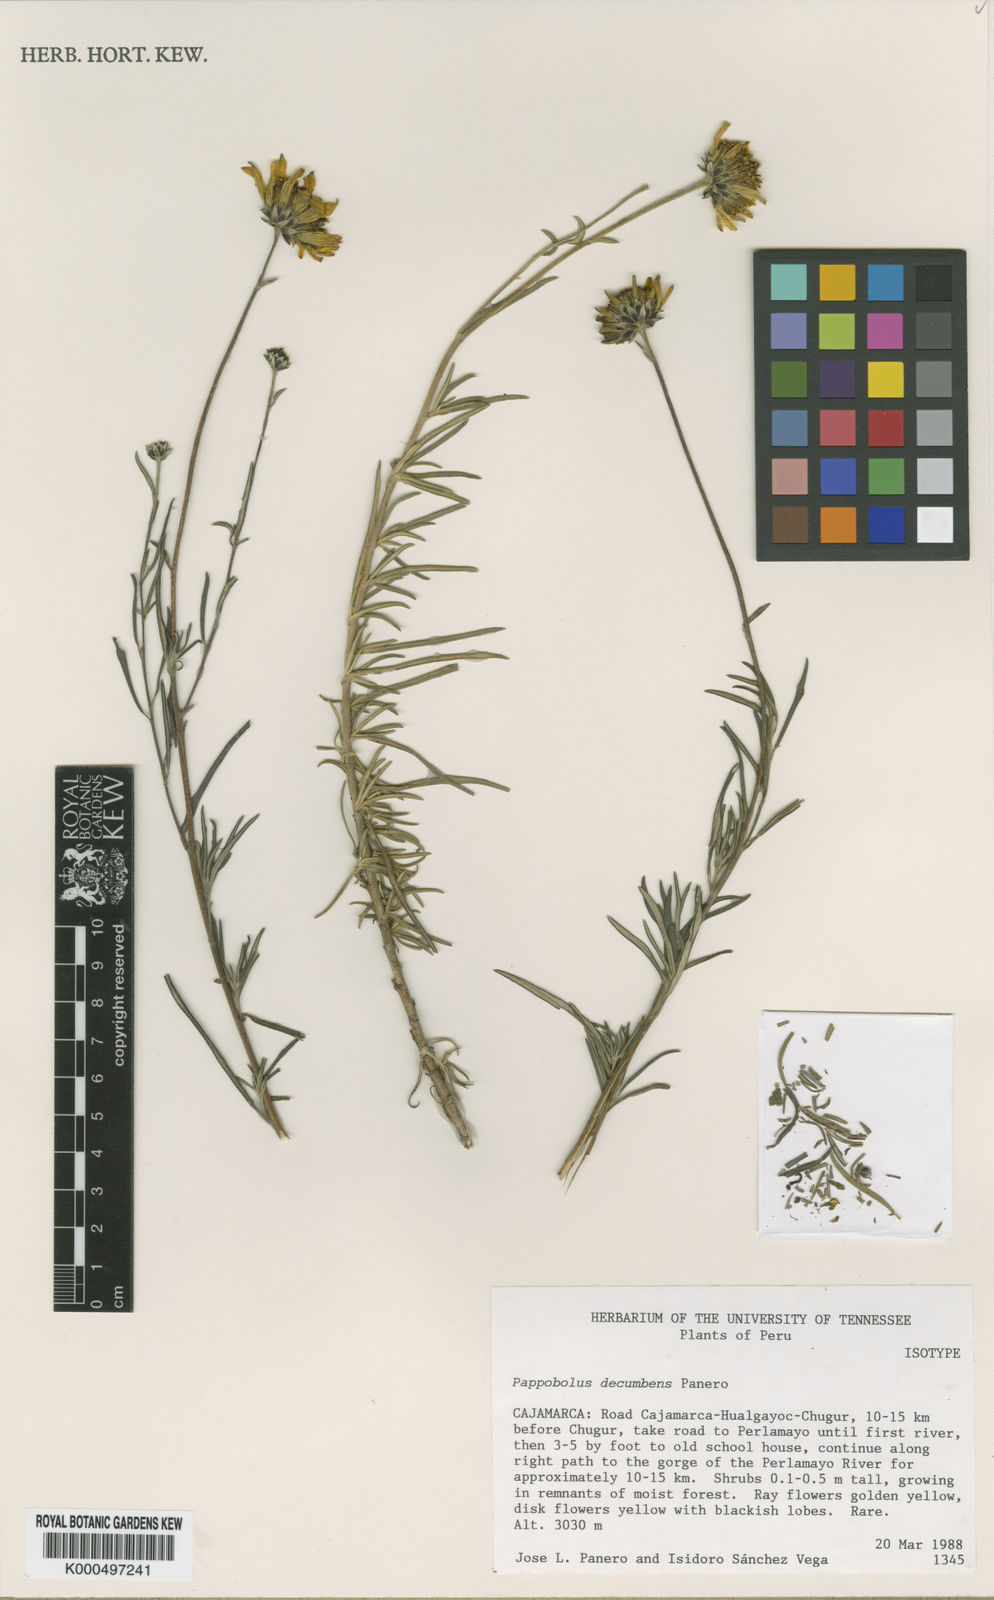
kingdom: Plantae
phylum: Tracheophyta
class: Magnoliopsida
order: Asterales
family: Asteraceae
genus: Pappobolus
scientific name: Pappobolus decumbens
